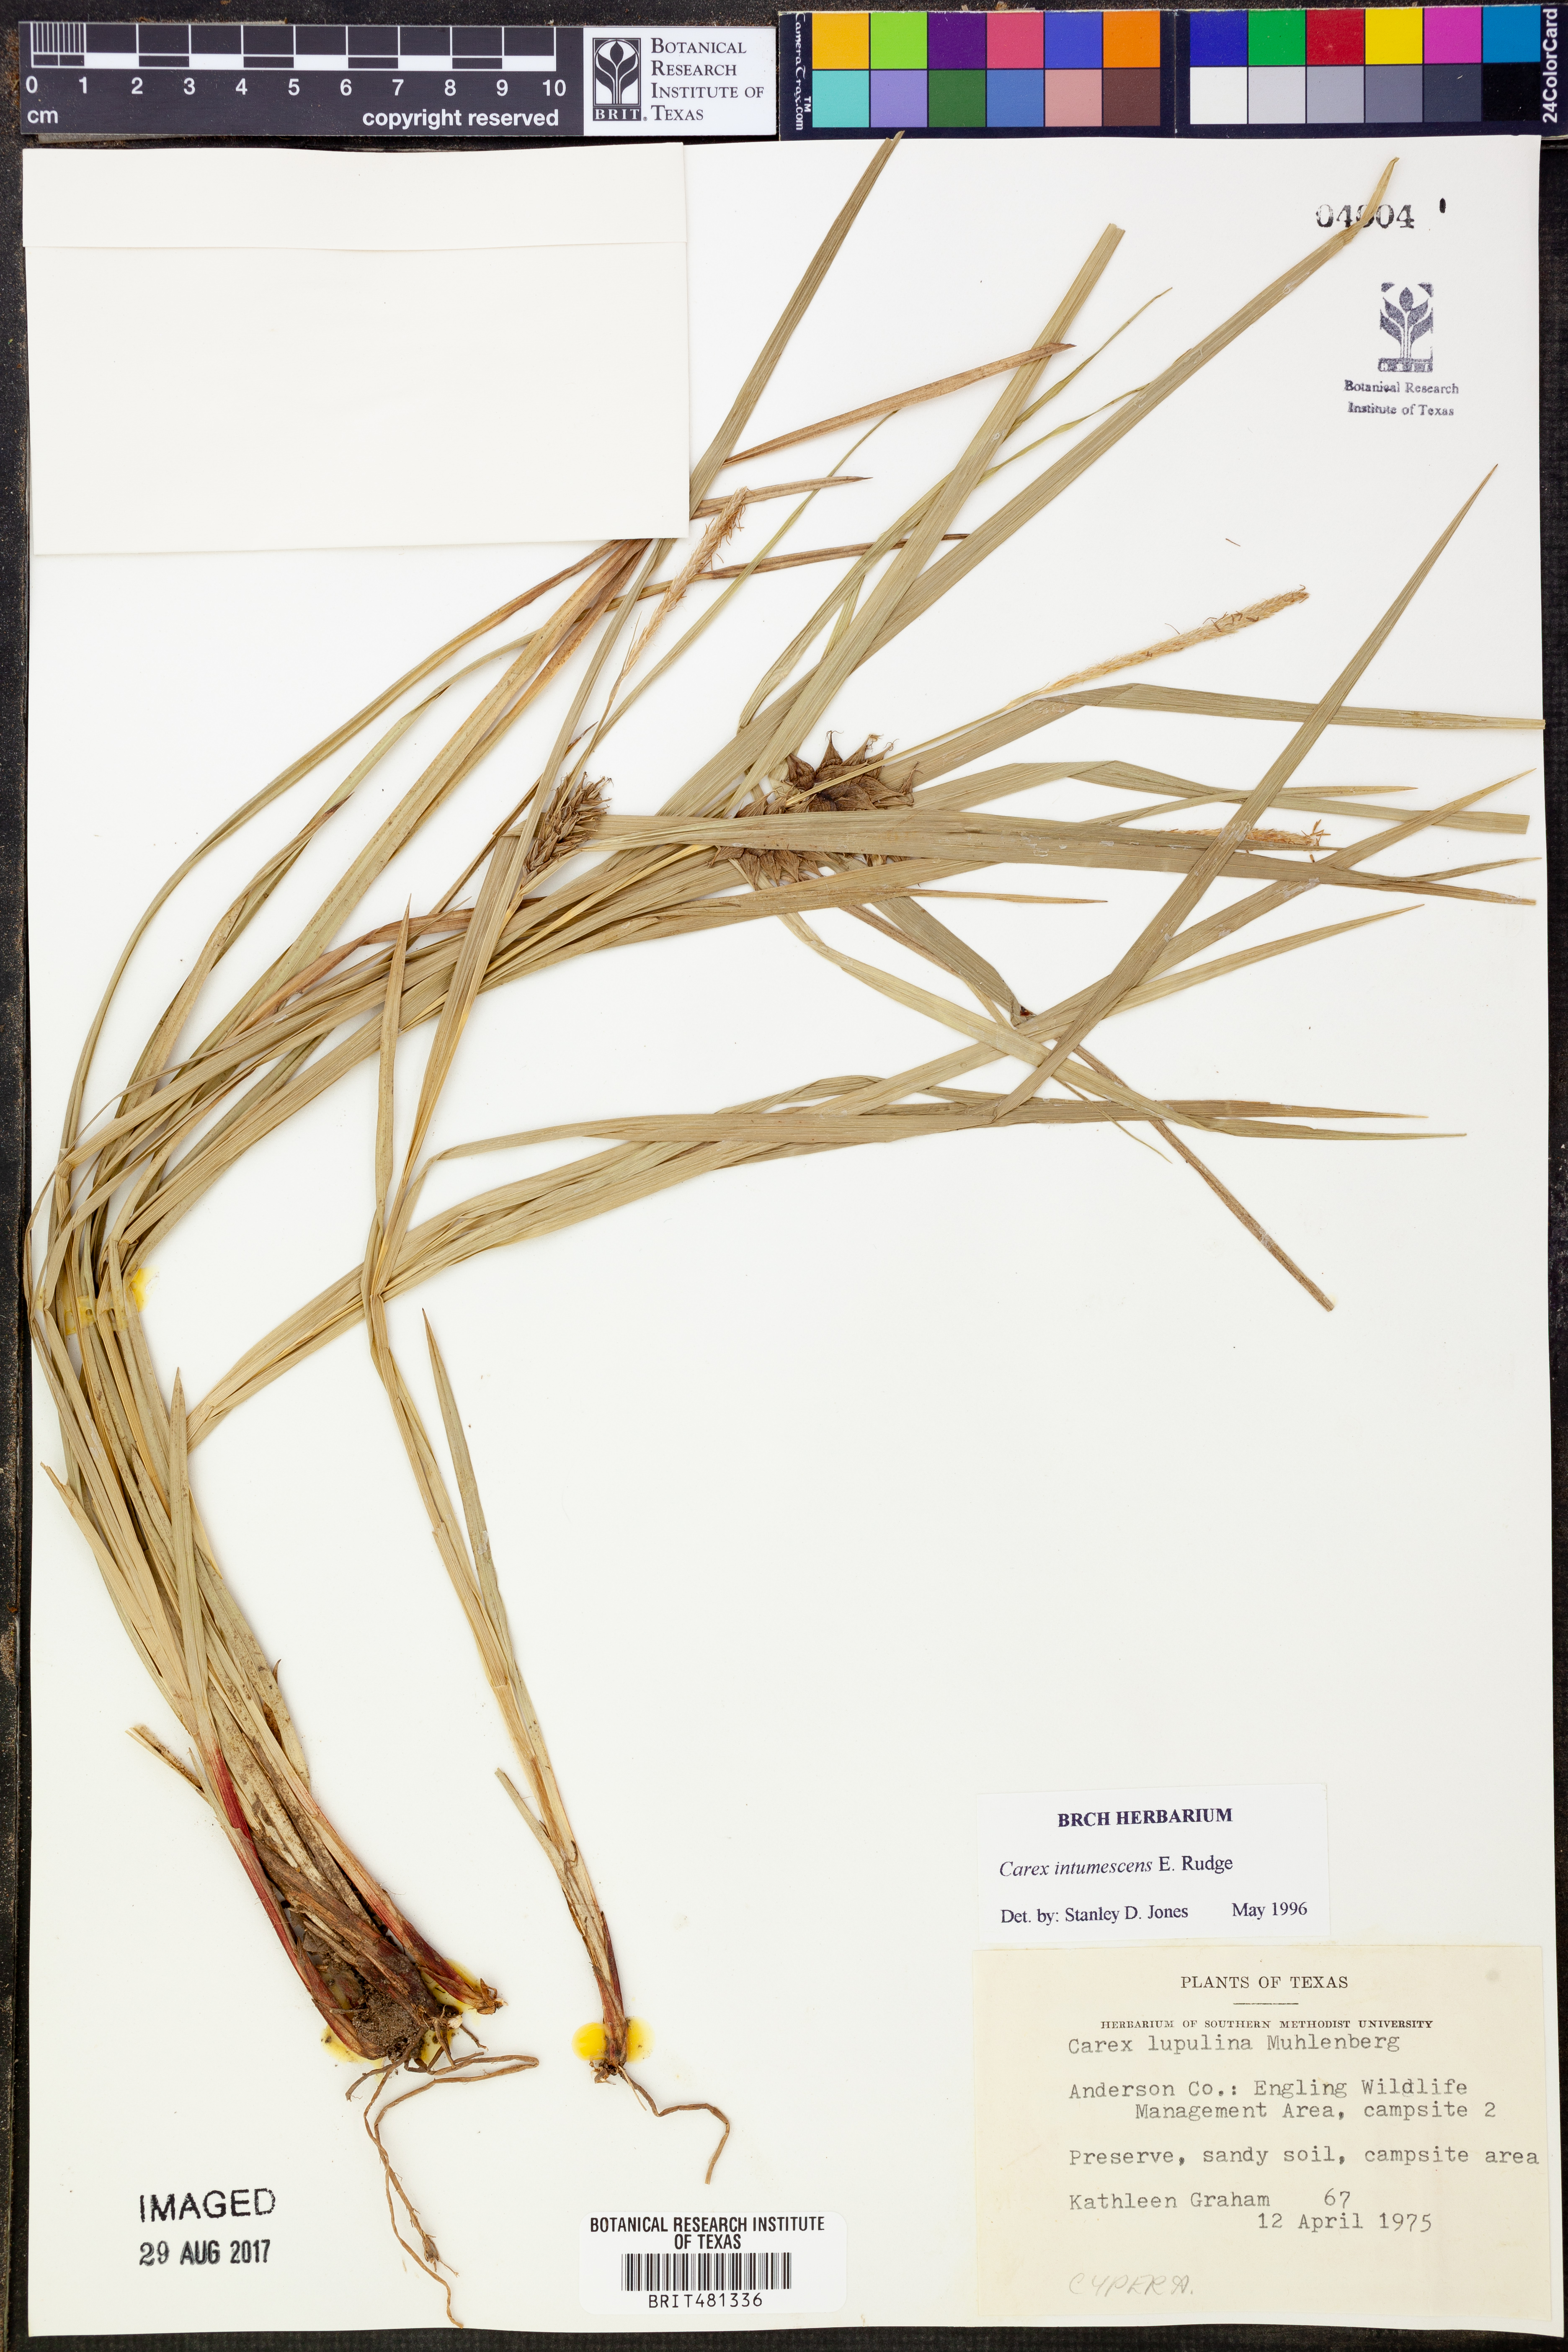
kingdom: Plantae
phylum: Tracheophyta
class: Liliopsida
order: Poales
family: Cyperaceae
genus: Carex
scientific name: Carex intumescens
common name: Greater bladder sedge
